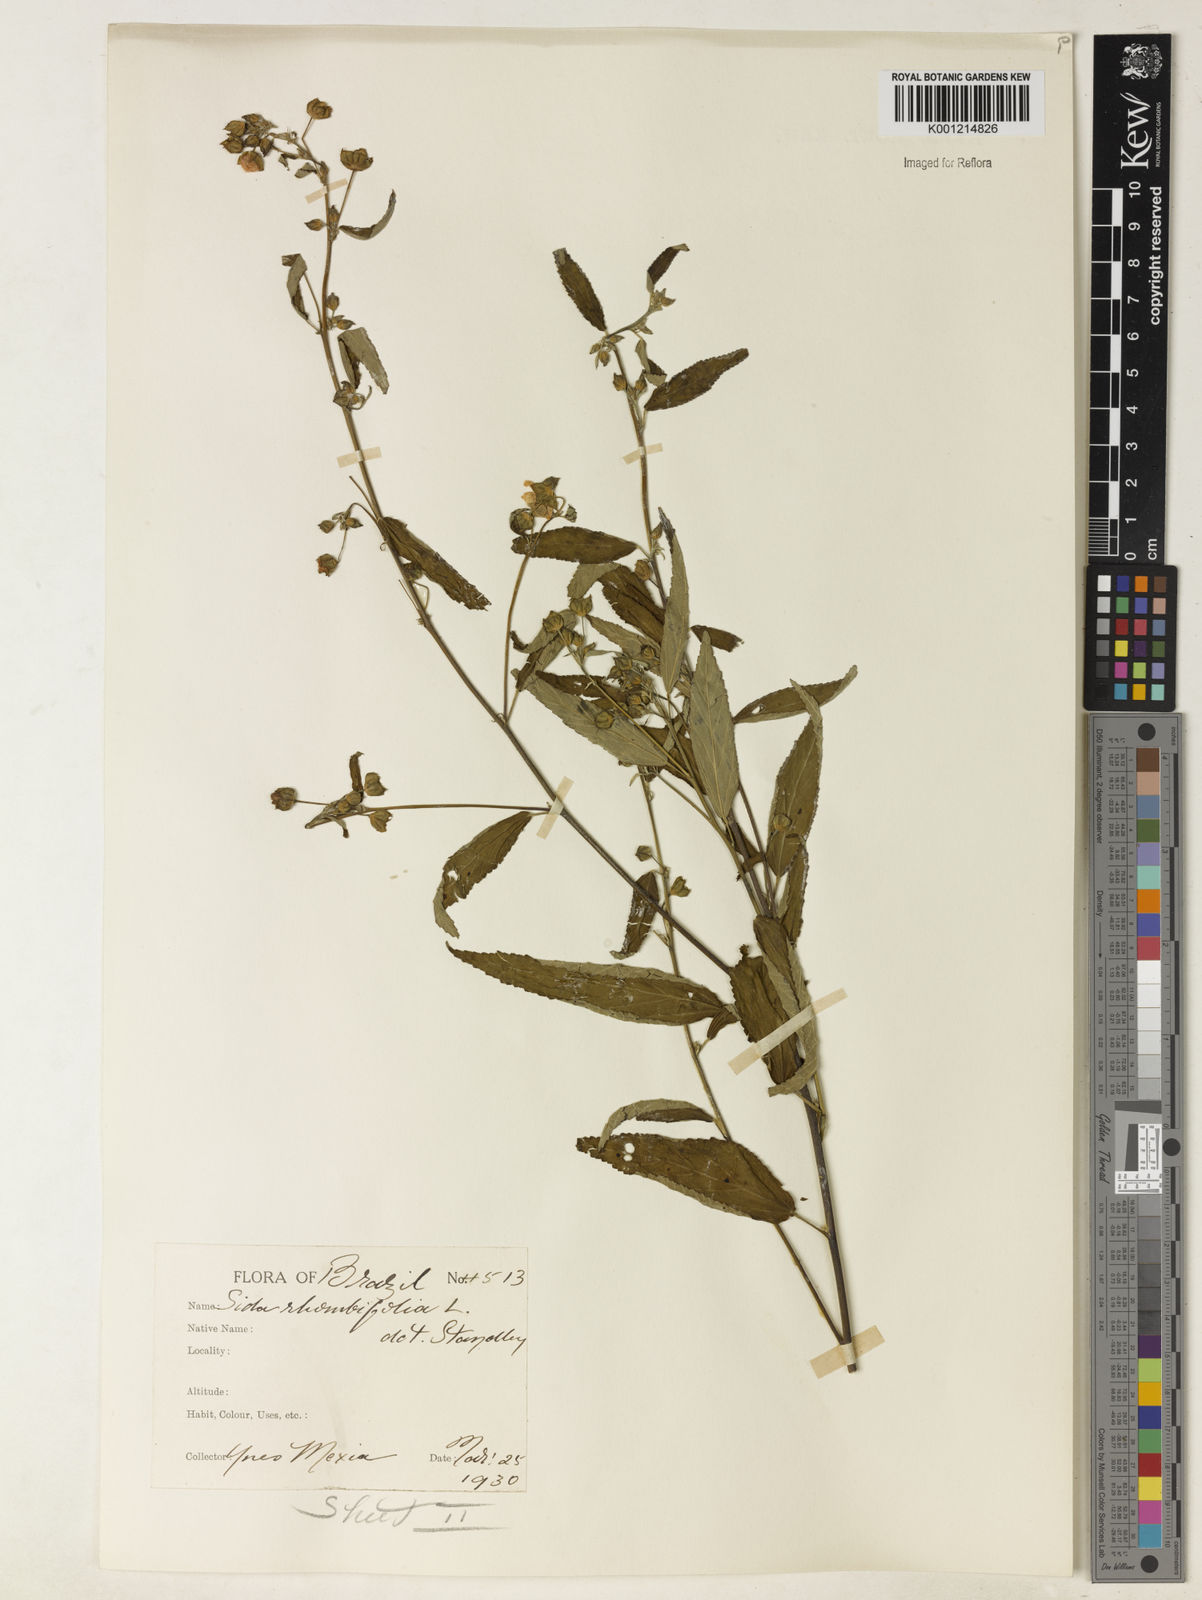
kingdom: Plantae
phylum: Tracheophyta
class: Magnoliopsida
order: Malvales
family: Malvaceae
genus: Sida
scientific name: Sida rhombifolia
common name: Queensland-hemp
